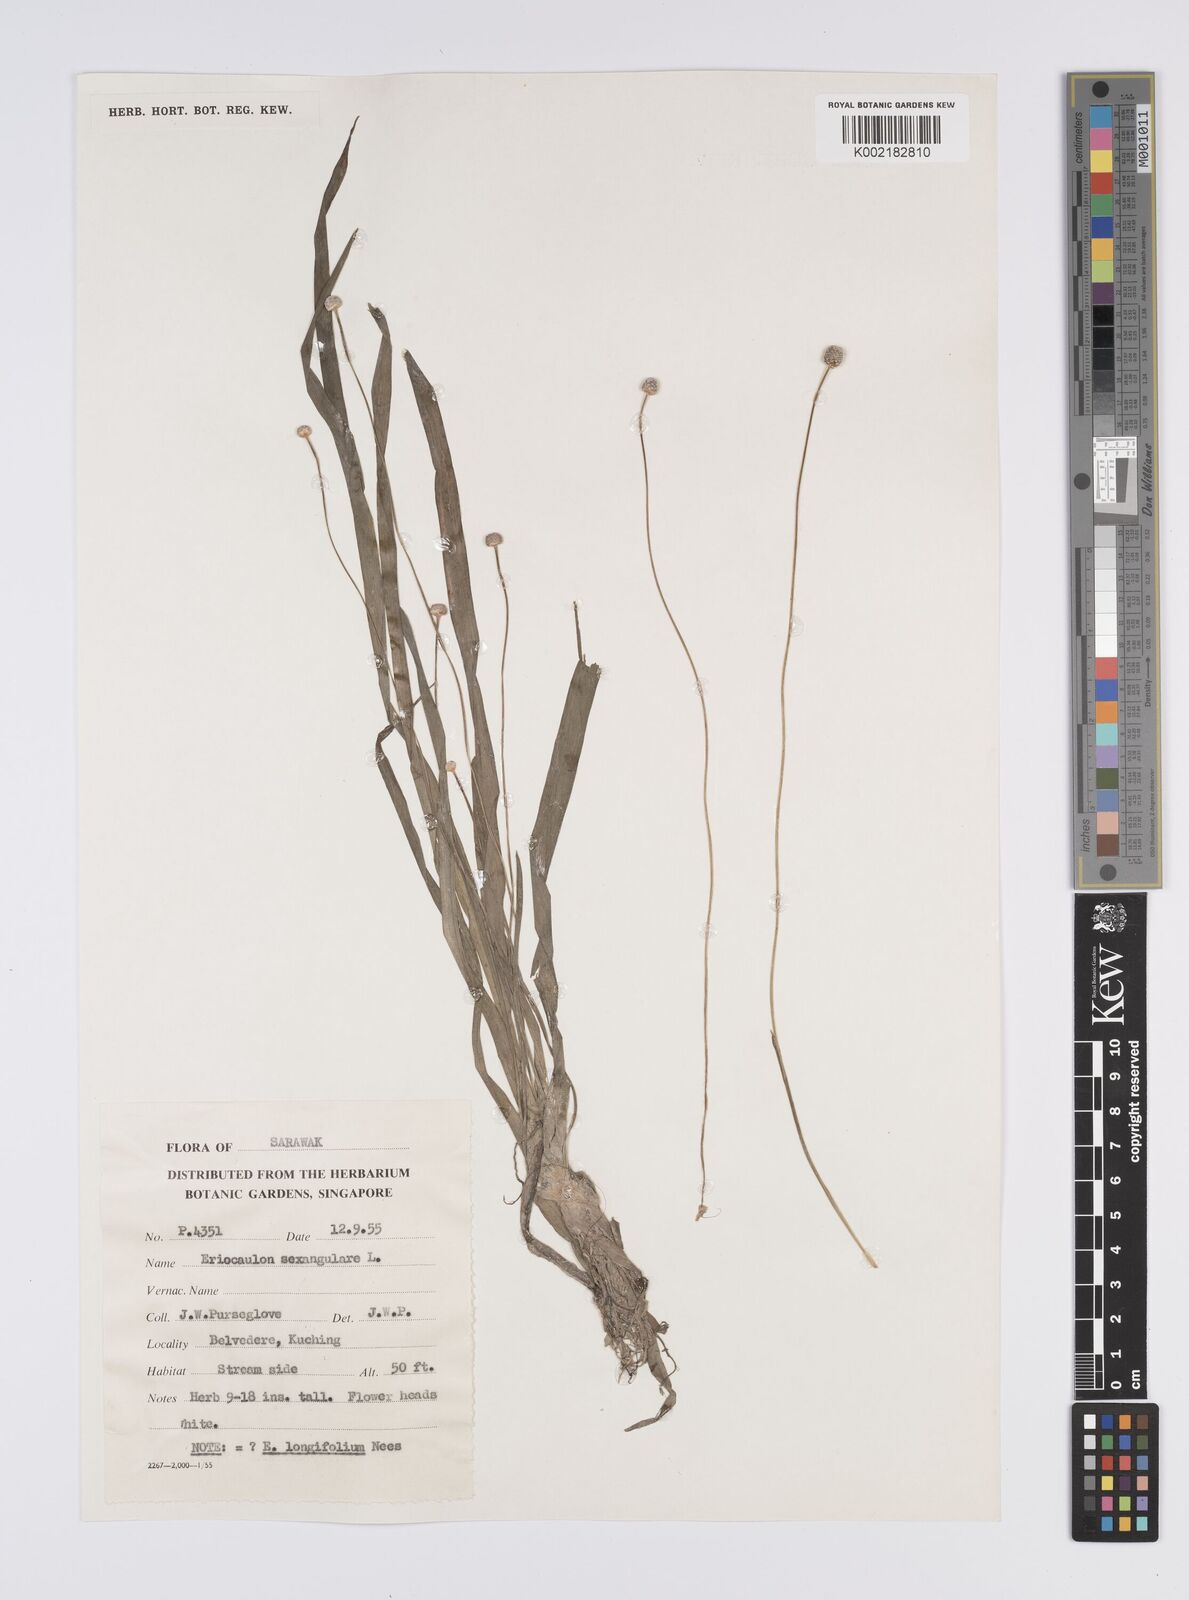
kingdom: Plantae
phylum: Tracheophyta
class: Liliopsida
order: Poales
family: Eriocaulaceae
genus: Eriocaulon
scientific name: Eriocaulon sexangulare
